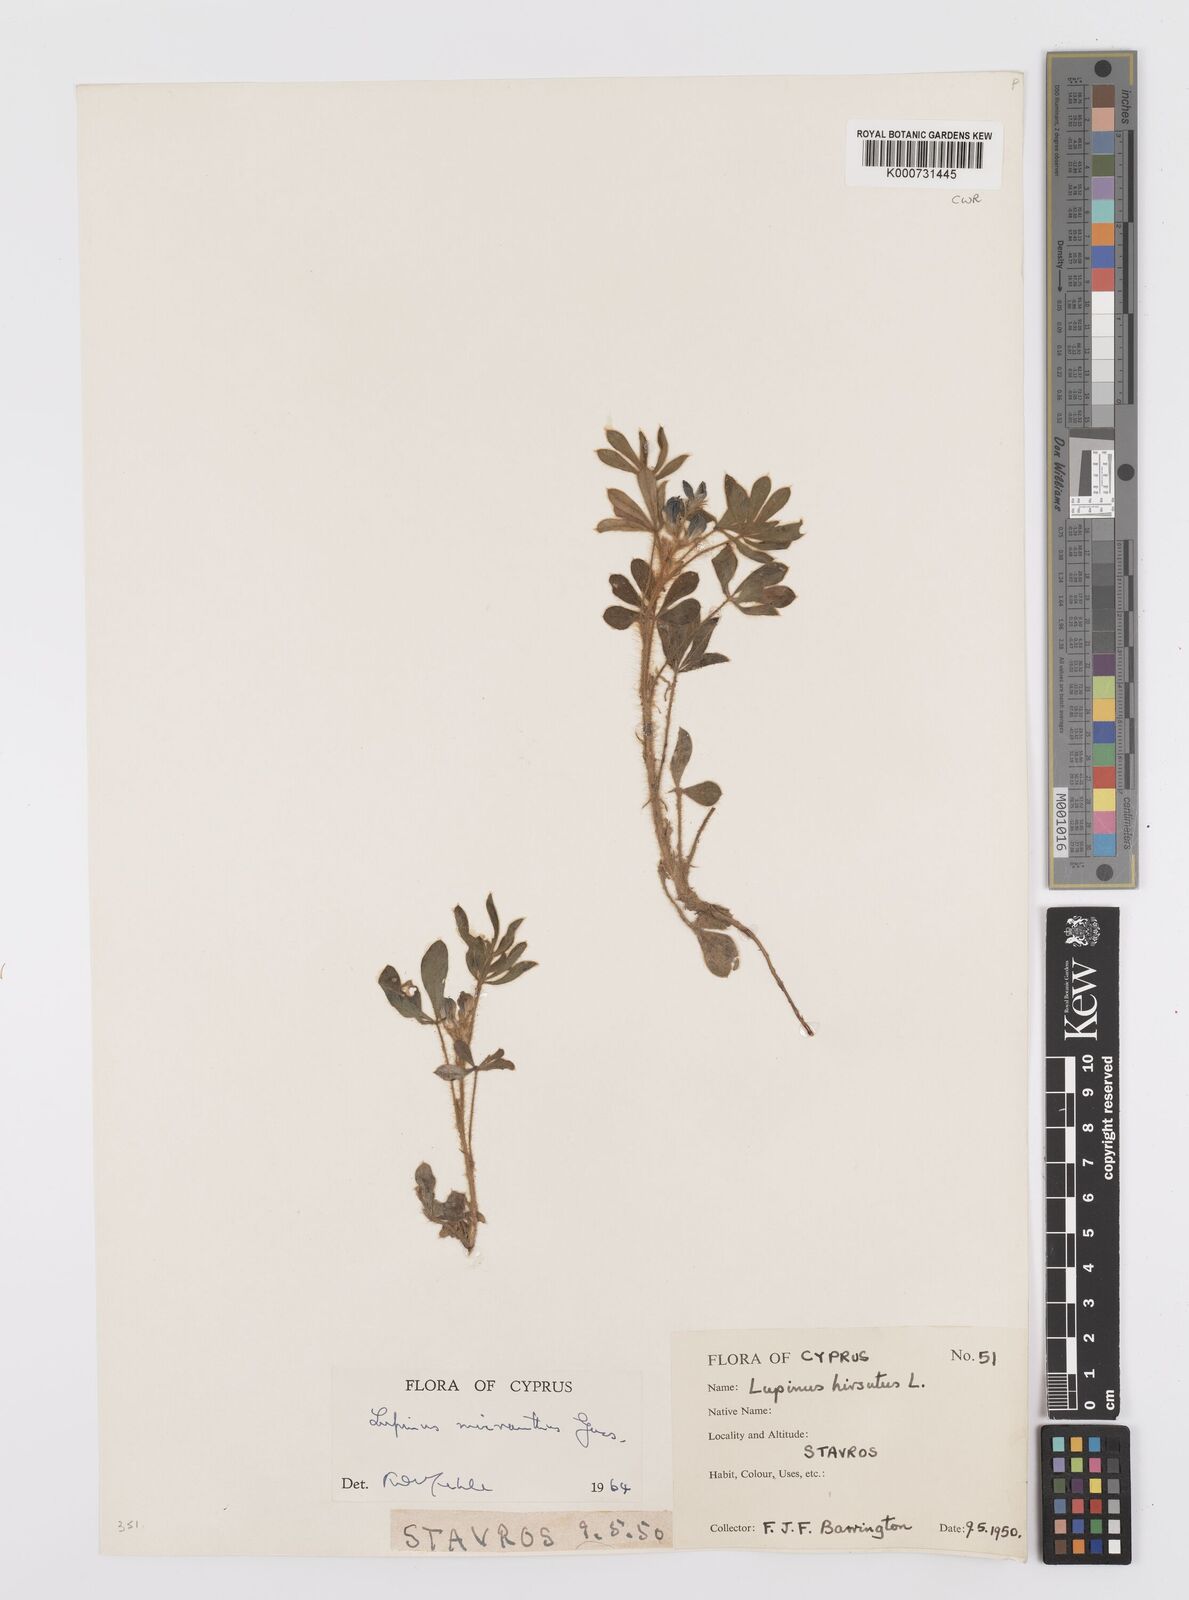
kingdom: Plantae
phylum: Tracheophyta
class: Magnoliopsida
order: Fabales
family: Fabaceae
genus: Lupinus
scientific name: Lupinus gussoneanus
